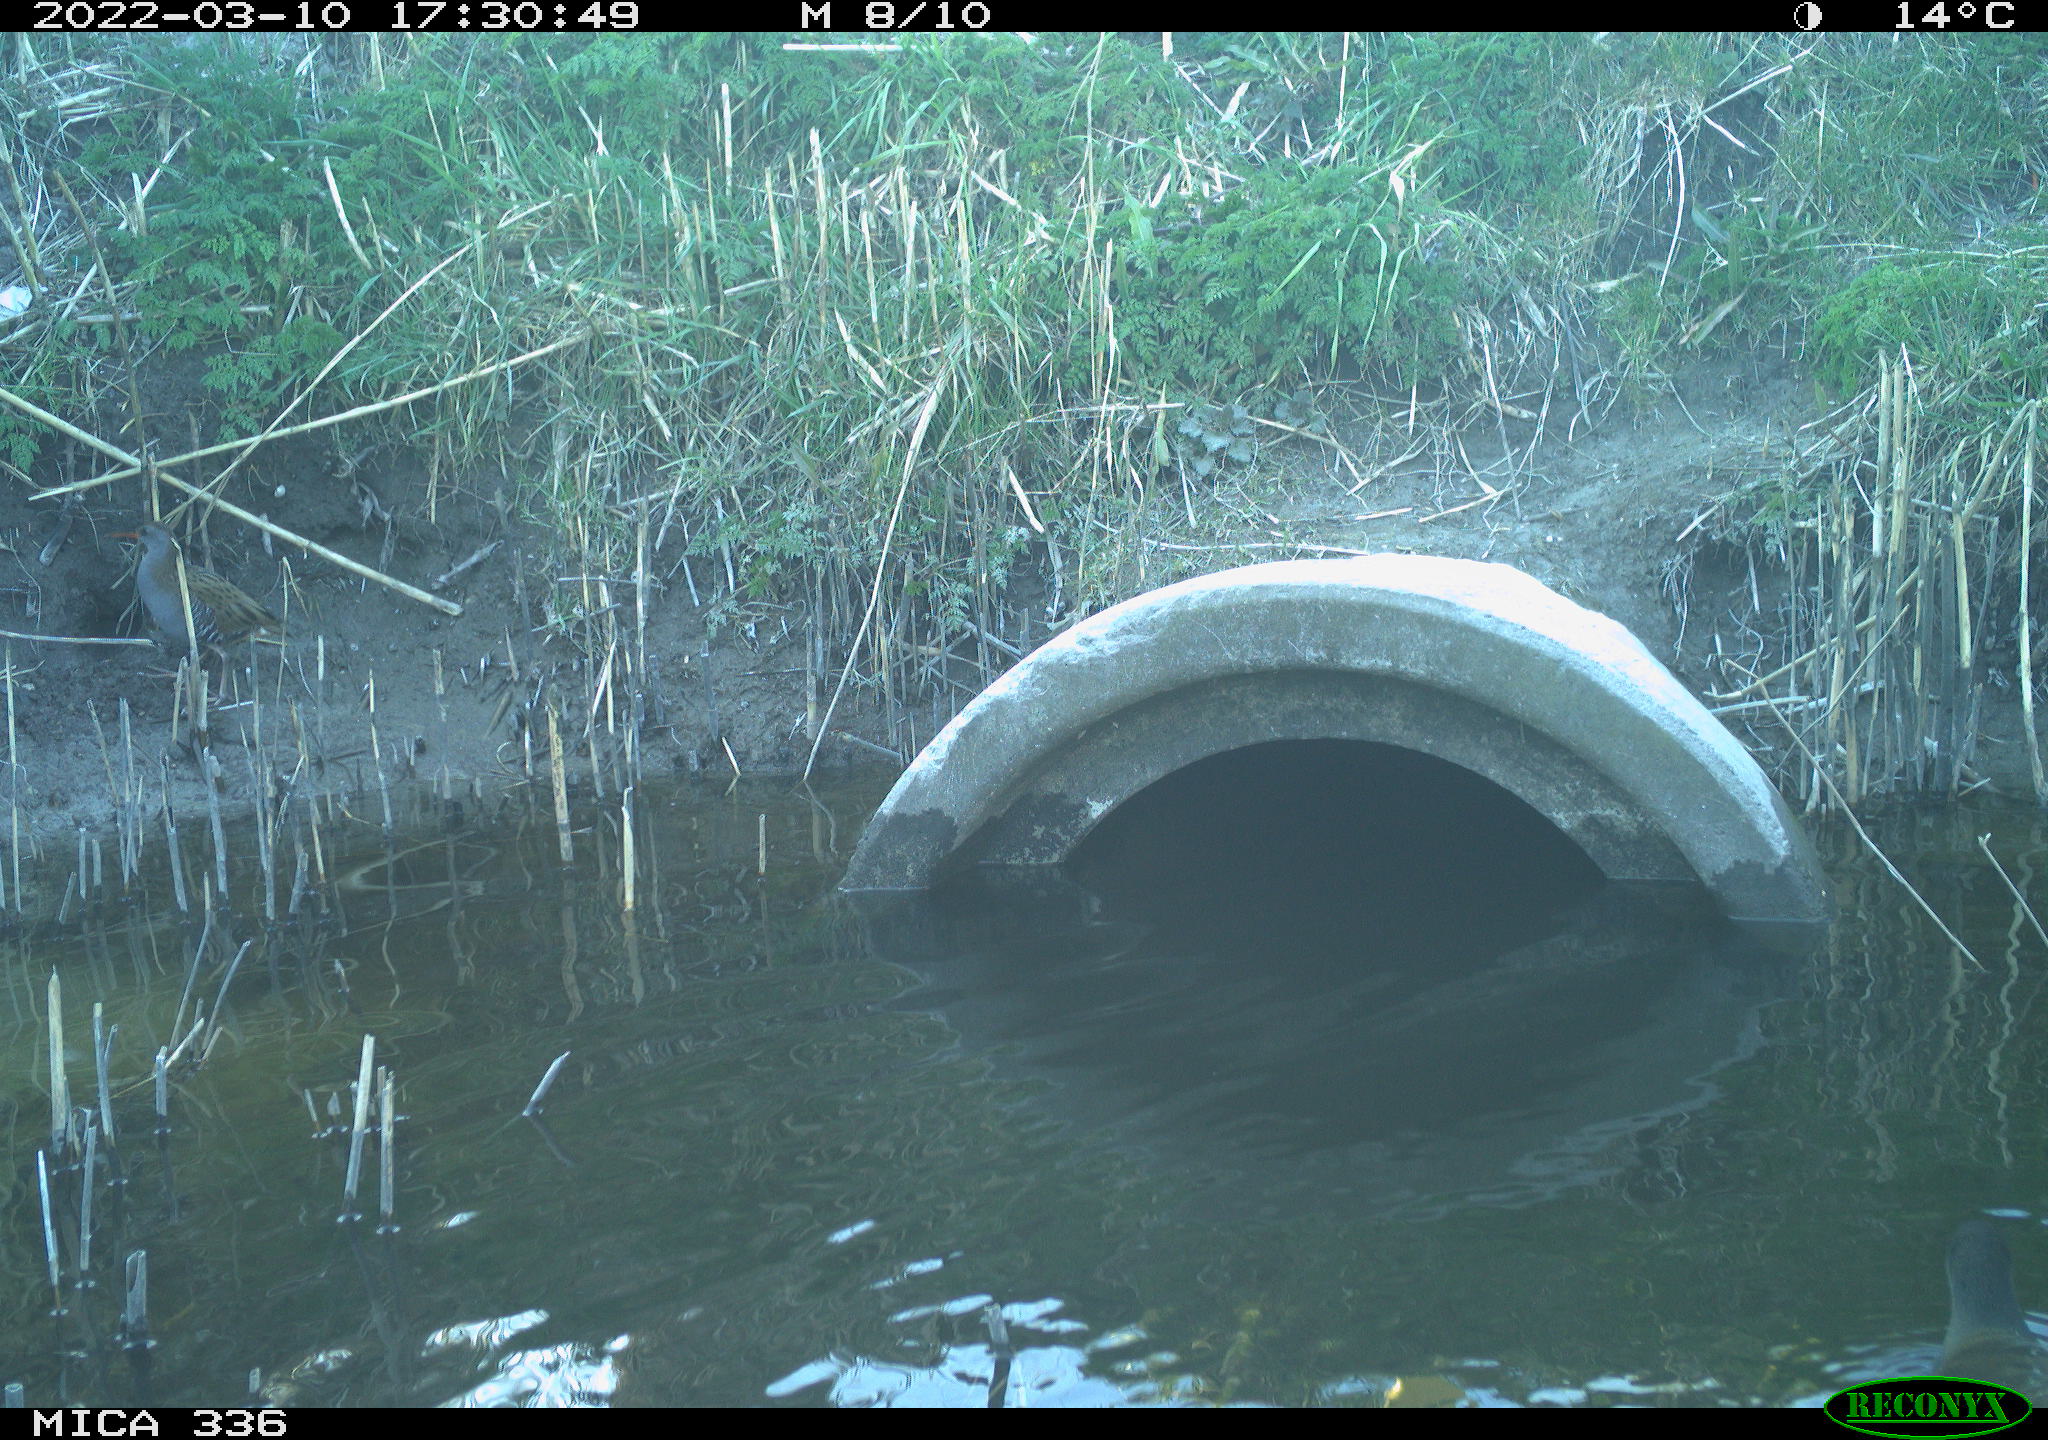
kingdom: Animalia
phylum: Chordata
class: Aves
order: Gruiformes
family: Rallidae
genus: Gallinula
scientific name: Gallinula chloropus
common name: Common moorhen
